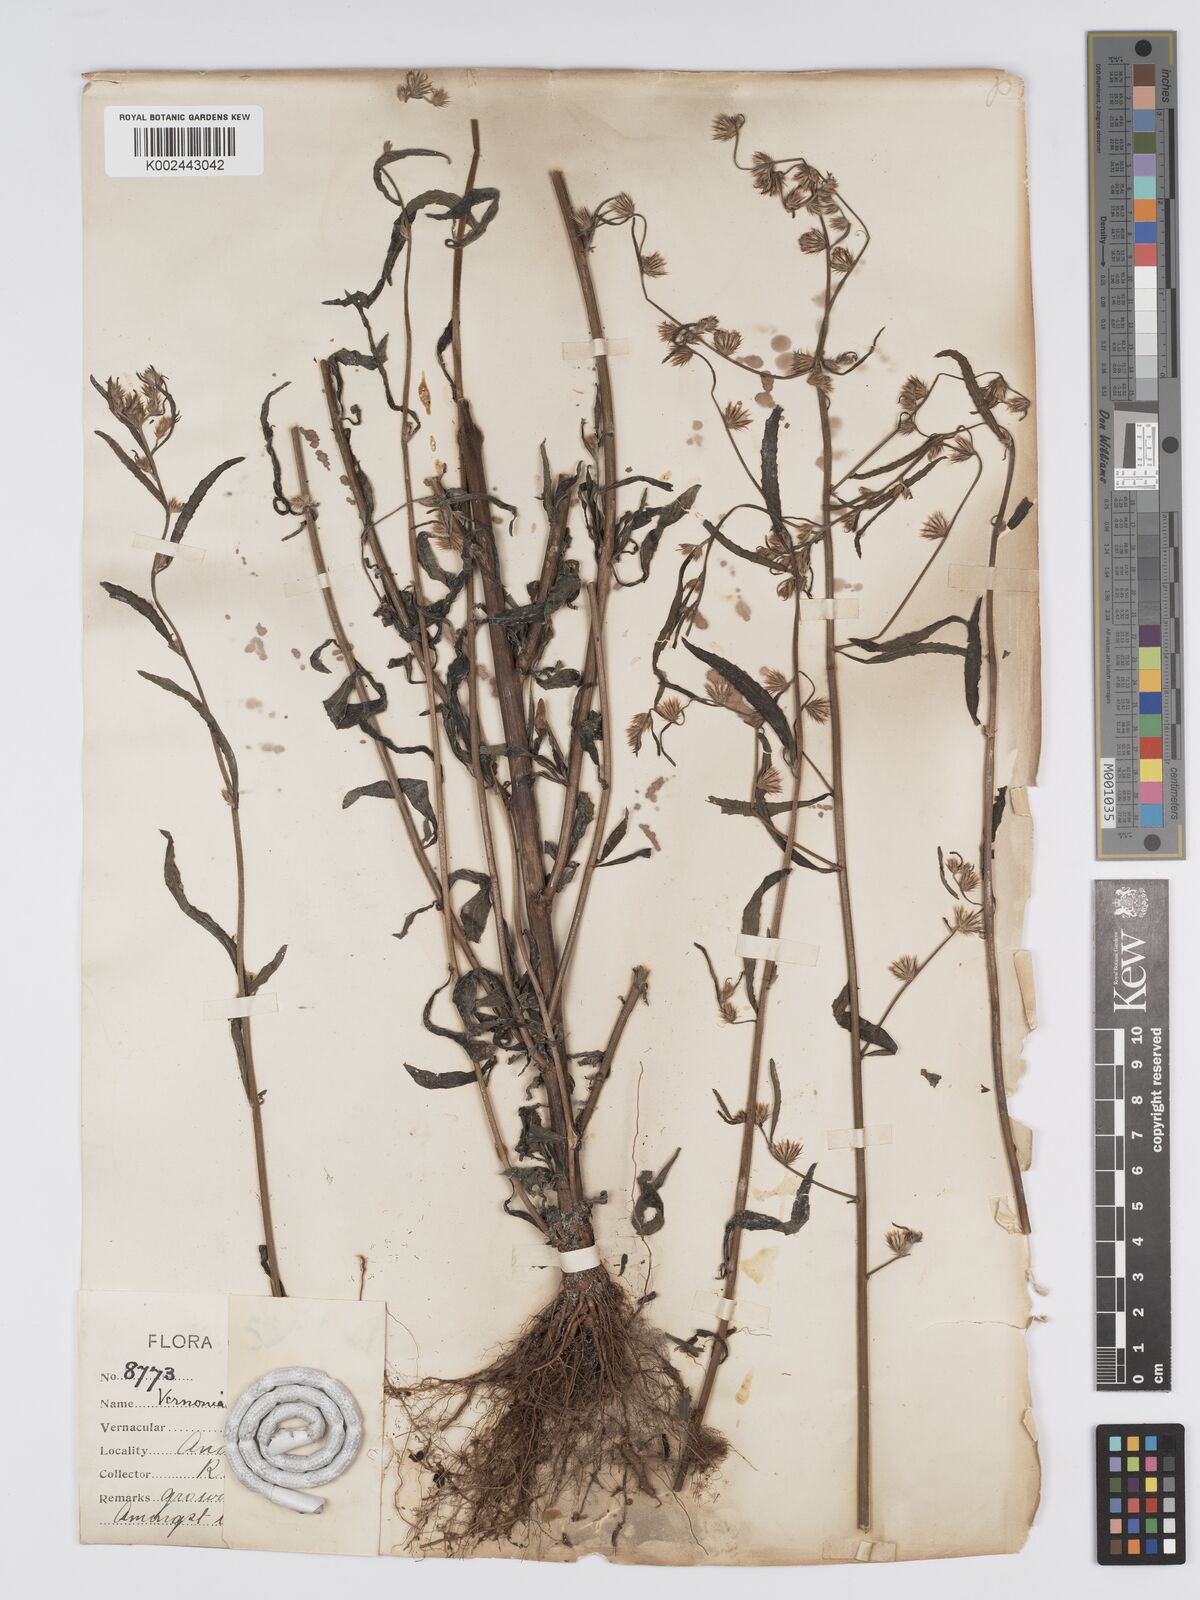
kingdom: Plantae
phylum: Tracheophyta
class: Magnoliopsida
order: Asterales
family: Asteraceae
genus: Lepidaploa
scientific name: Lepidaploa remotiflora
